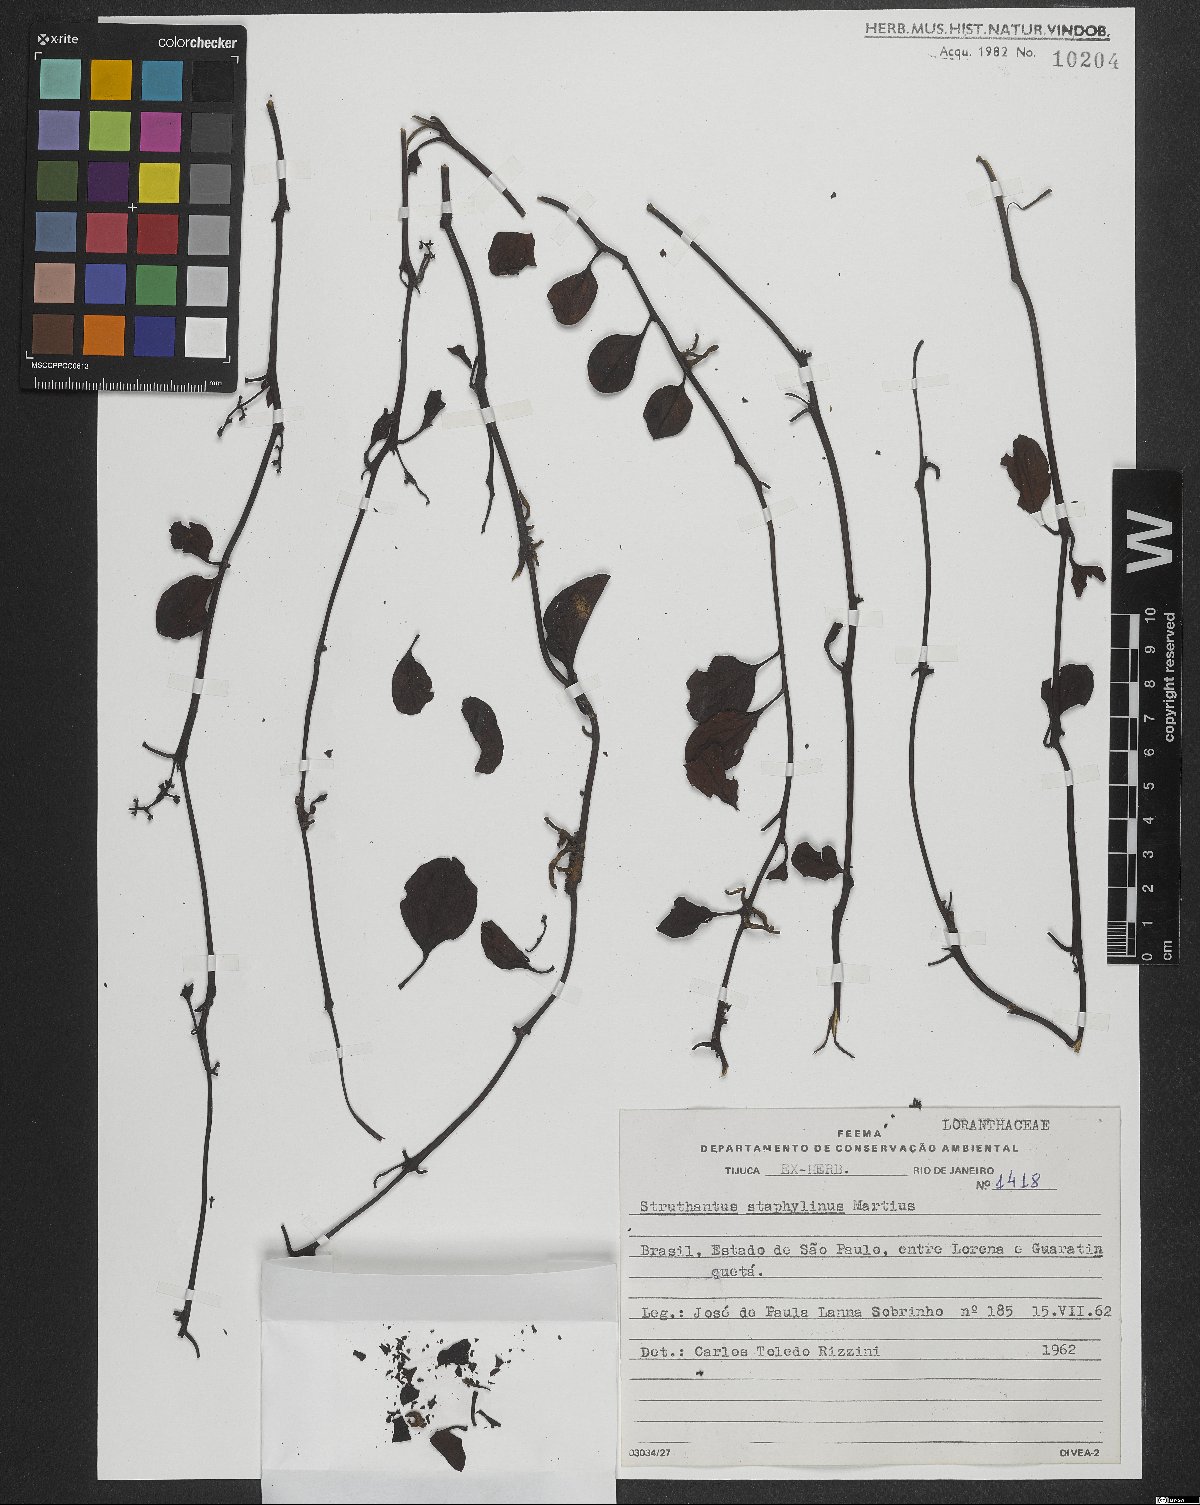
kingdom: Plantae
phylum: Tracheophyta
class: Magnoliopsida
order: Santalales
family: Loranthaceae
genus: Struthanthus
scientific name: Struthanthus staphylinus
